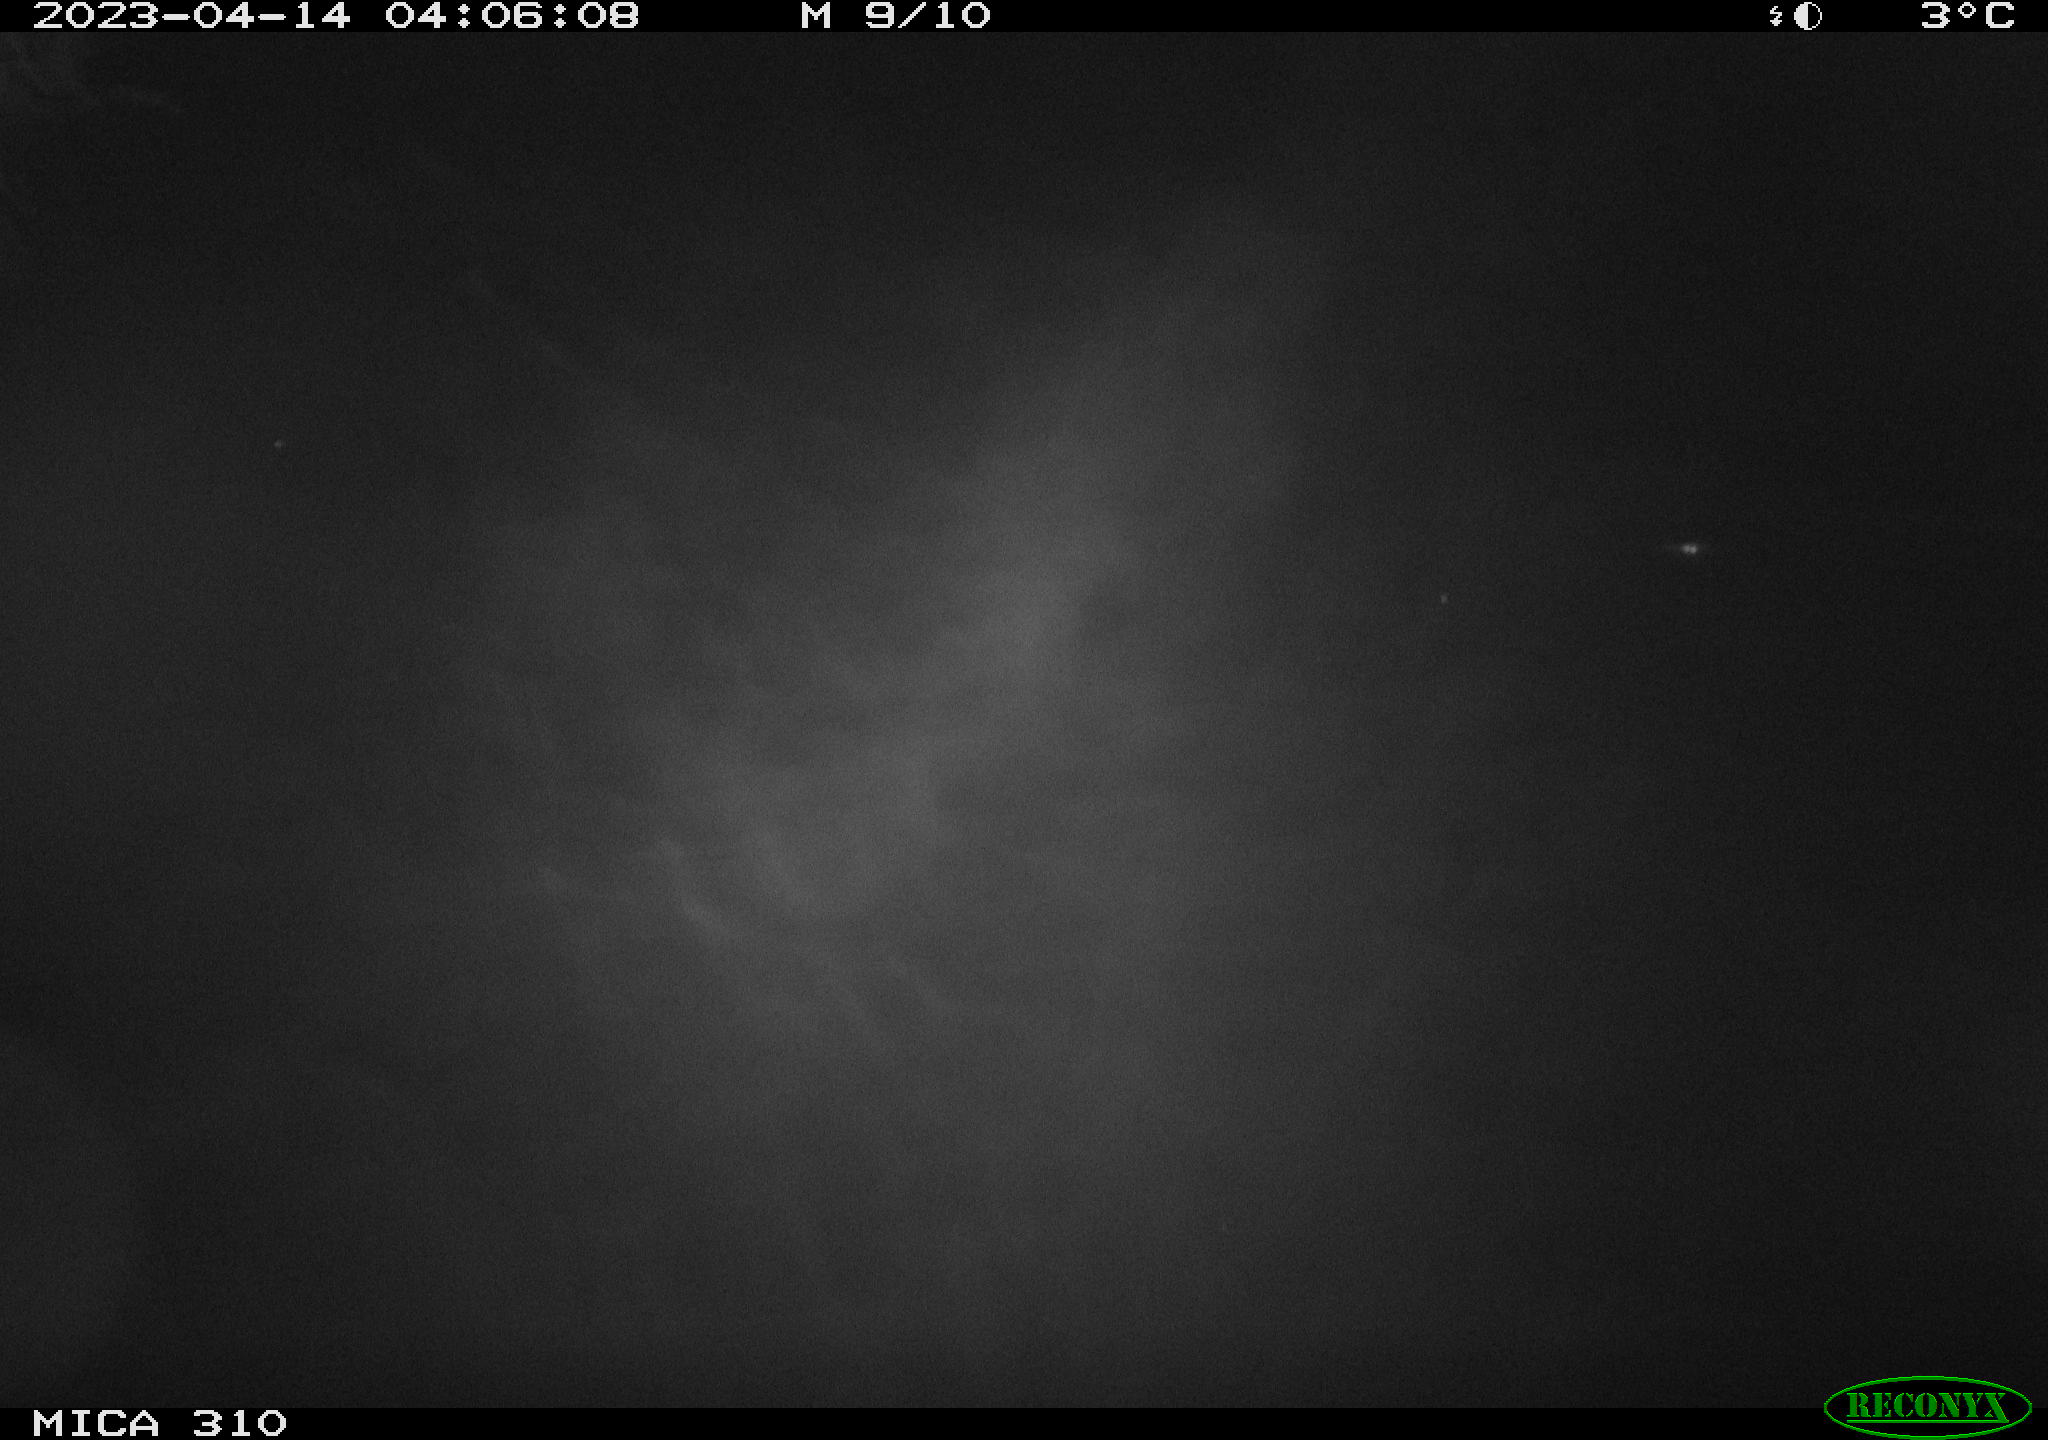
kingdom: Animalia
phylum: Chordata
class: Mammalia
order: Rodentia
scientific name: Rodentia
